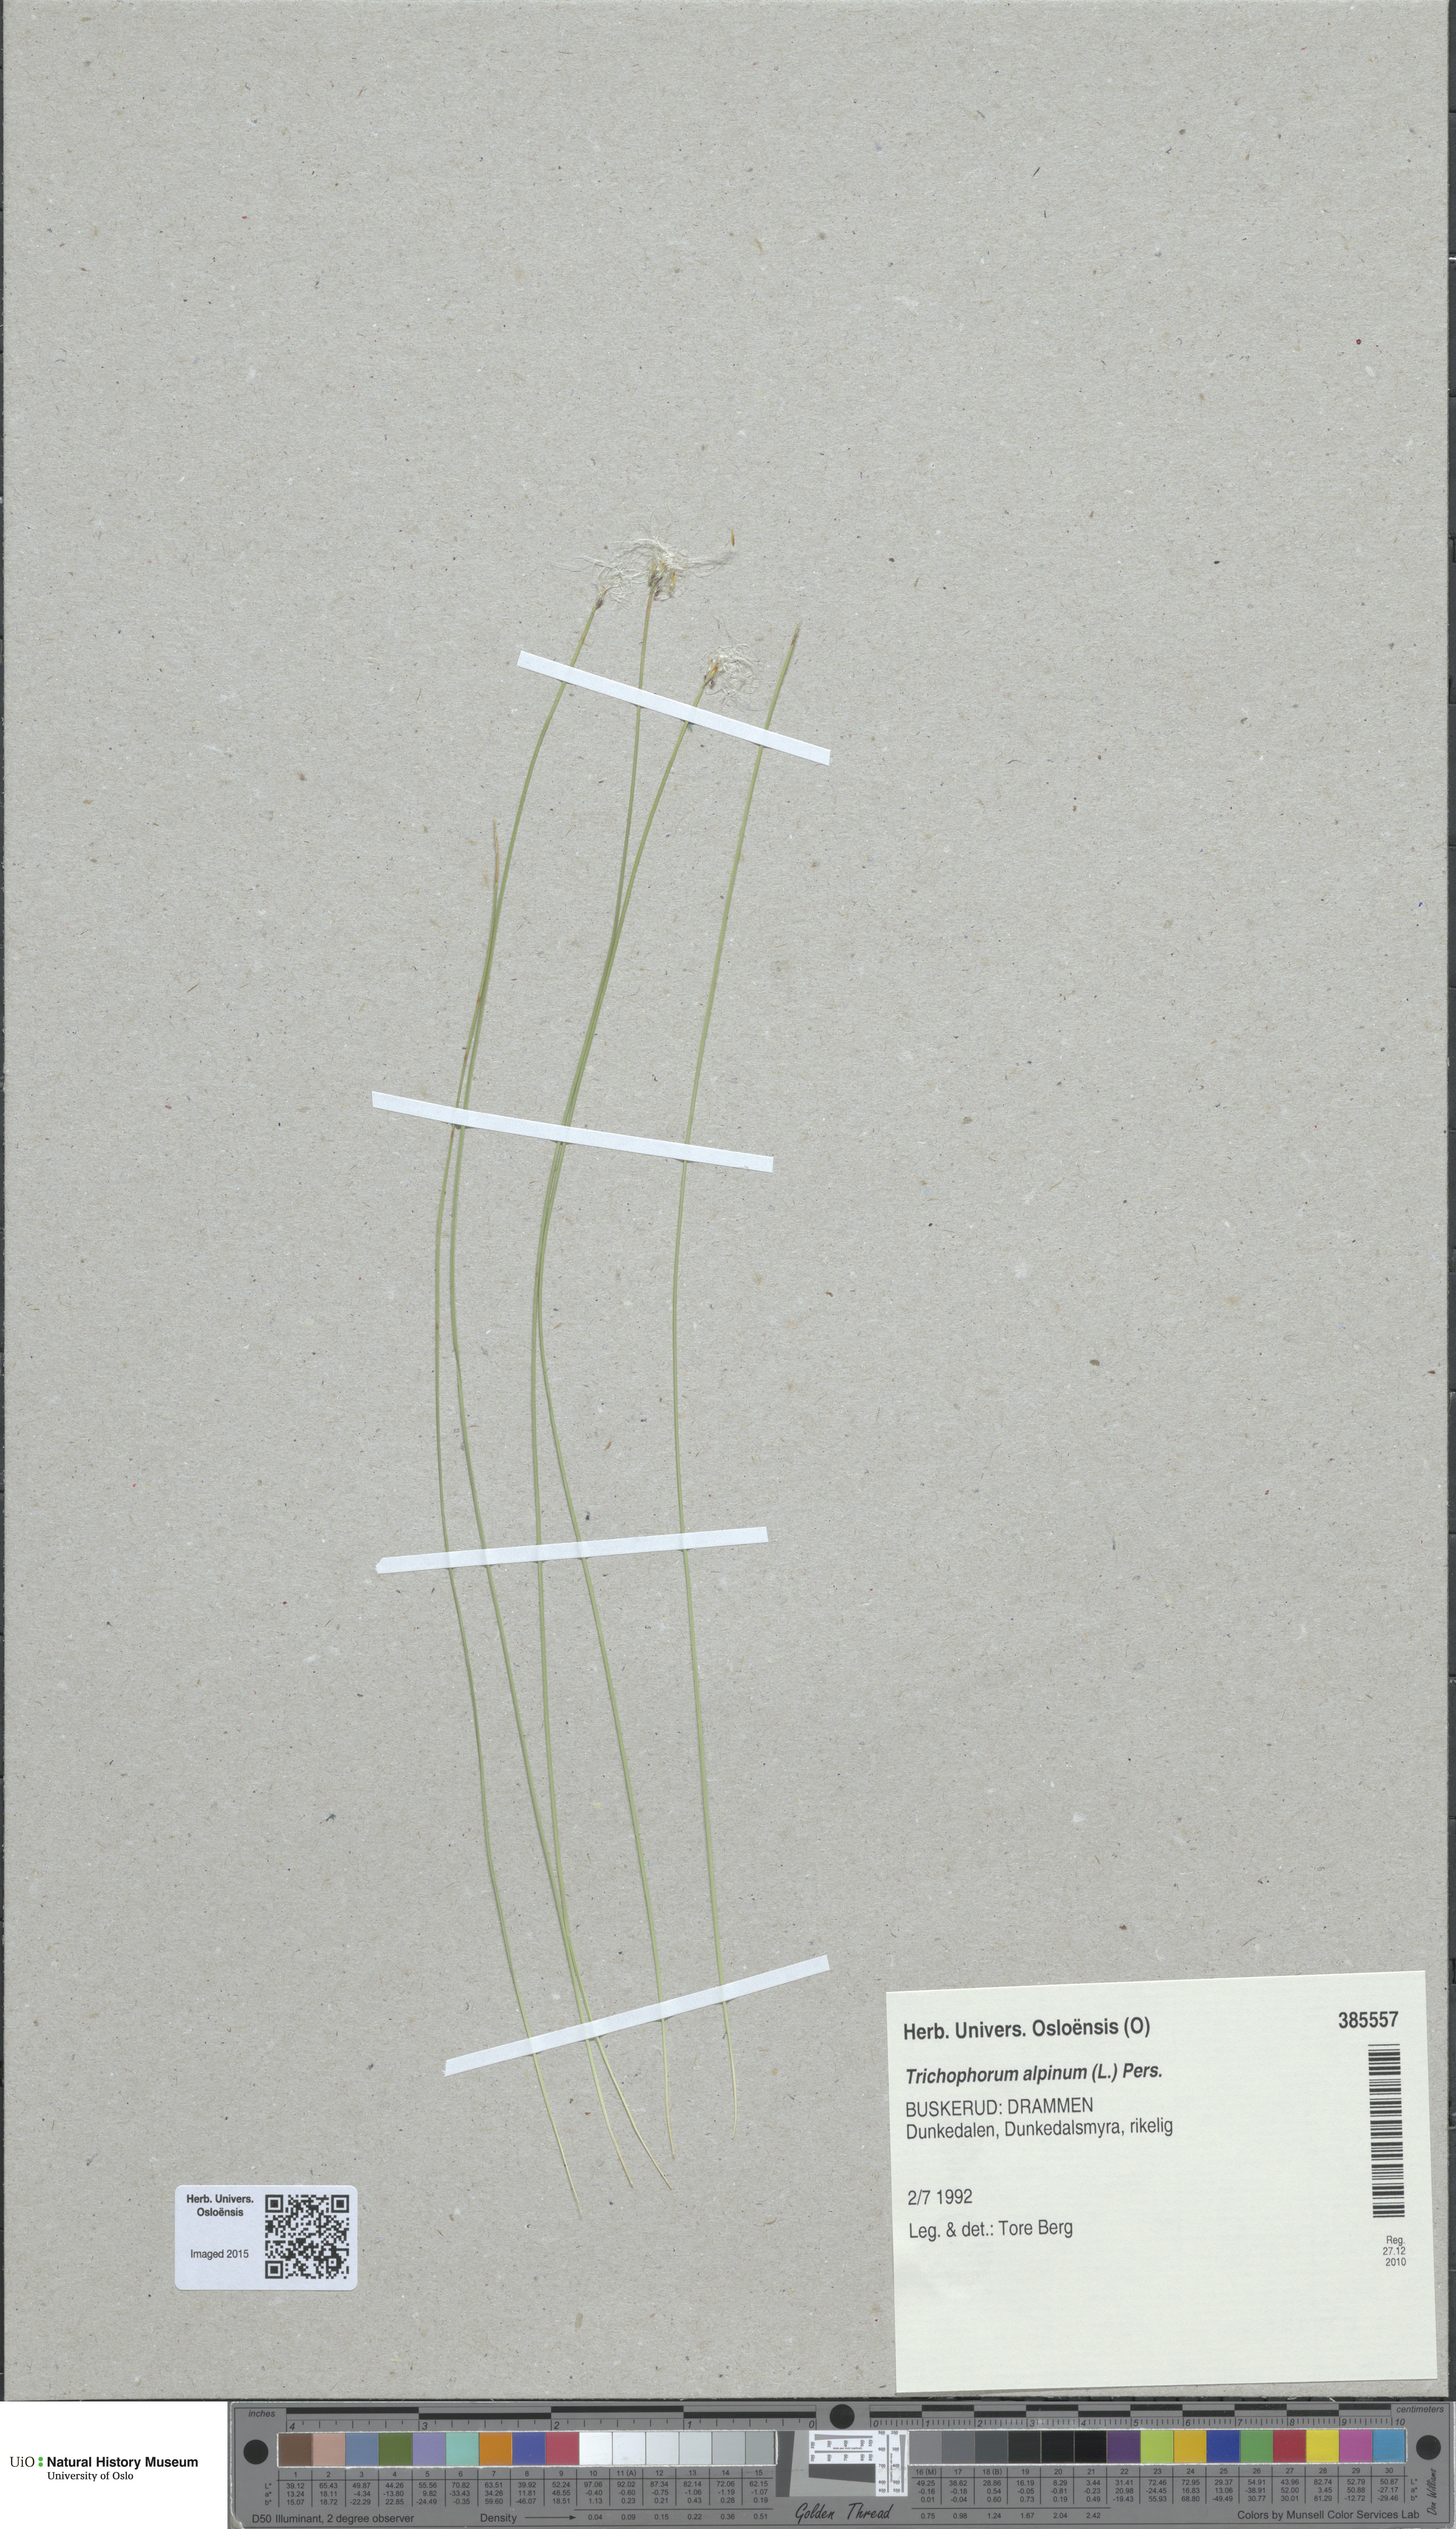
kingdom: Plantae
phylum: Tracheophyta
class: Liliopsida
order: Poales
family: Cyperaceae
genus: Trichophorum
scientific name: Trichophorum alpinum
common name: Alpine bulrush
